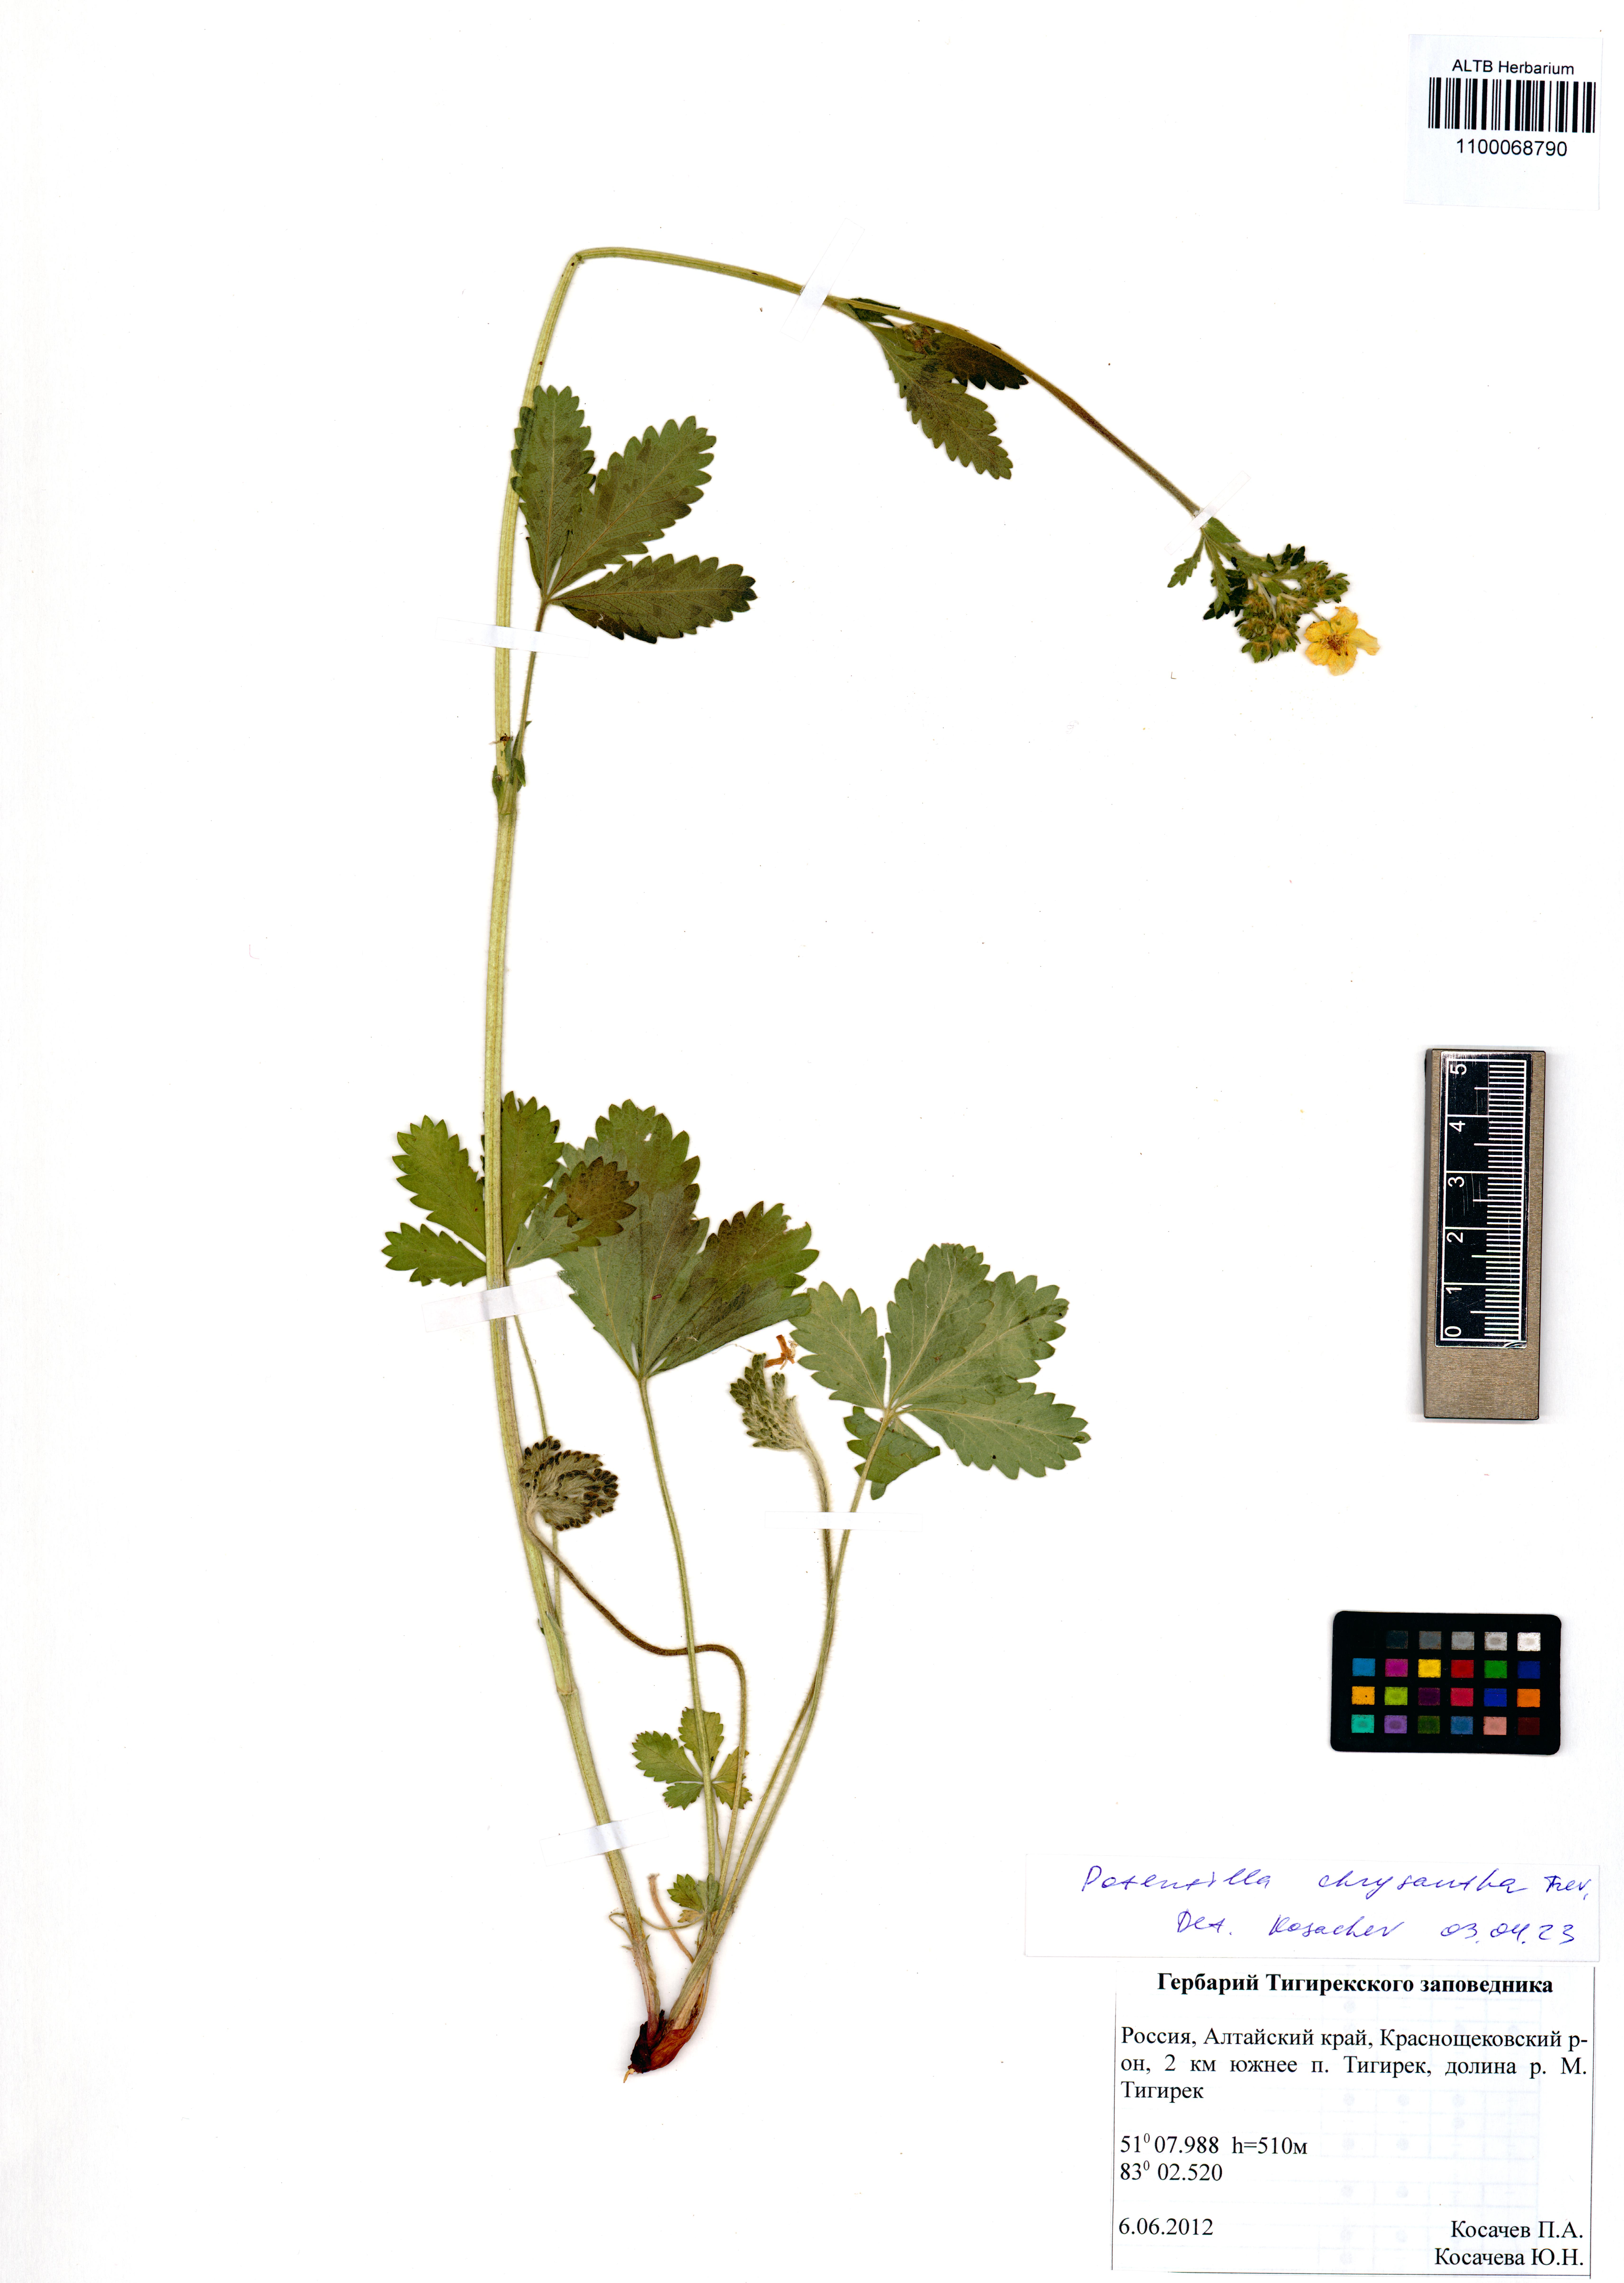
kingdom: Plantae
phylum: Tracheophyta
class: Magnoliopsida
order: Rosales
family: Rosaceae
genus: Potentilla
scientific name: Potentilla chrysantha
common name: Thuringian cinquefoil
